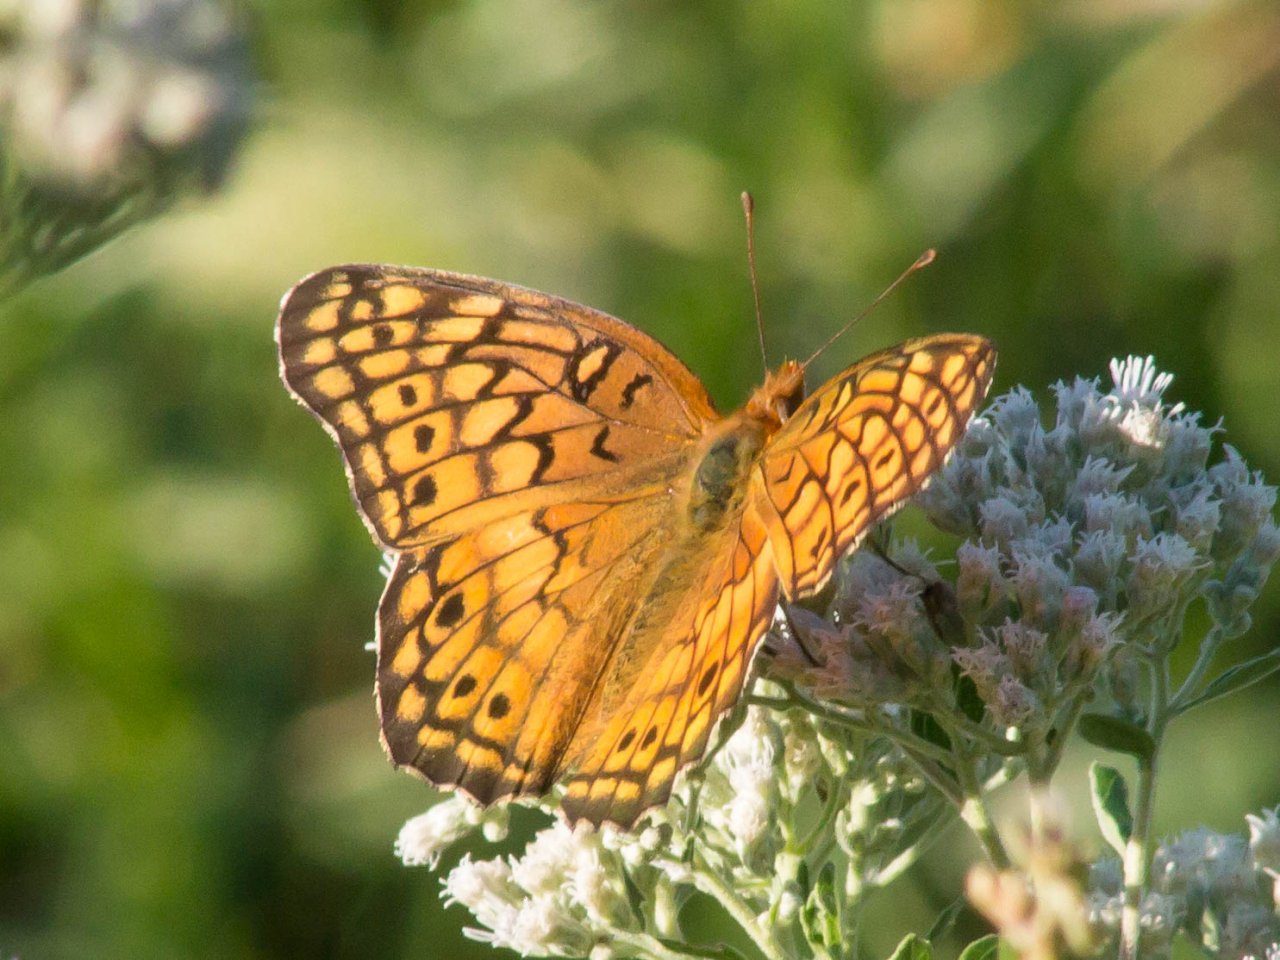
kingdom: Animalia
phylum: Arthropoda
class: Insecta
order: Lepidoptera
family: Nymphalidae
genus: Euptoieta
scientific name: Euptoieta claudia
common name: Variegated Fritillary
